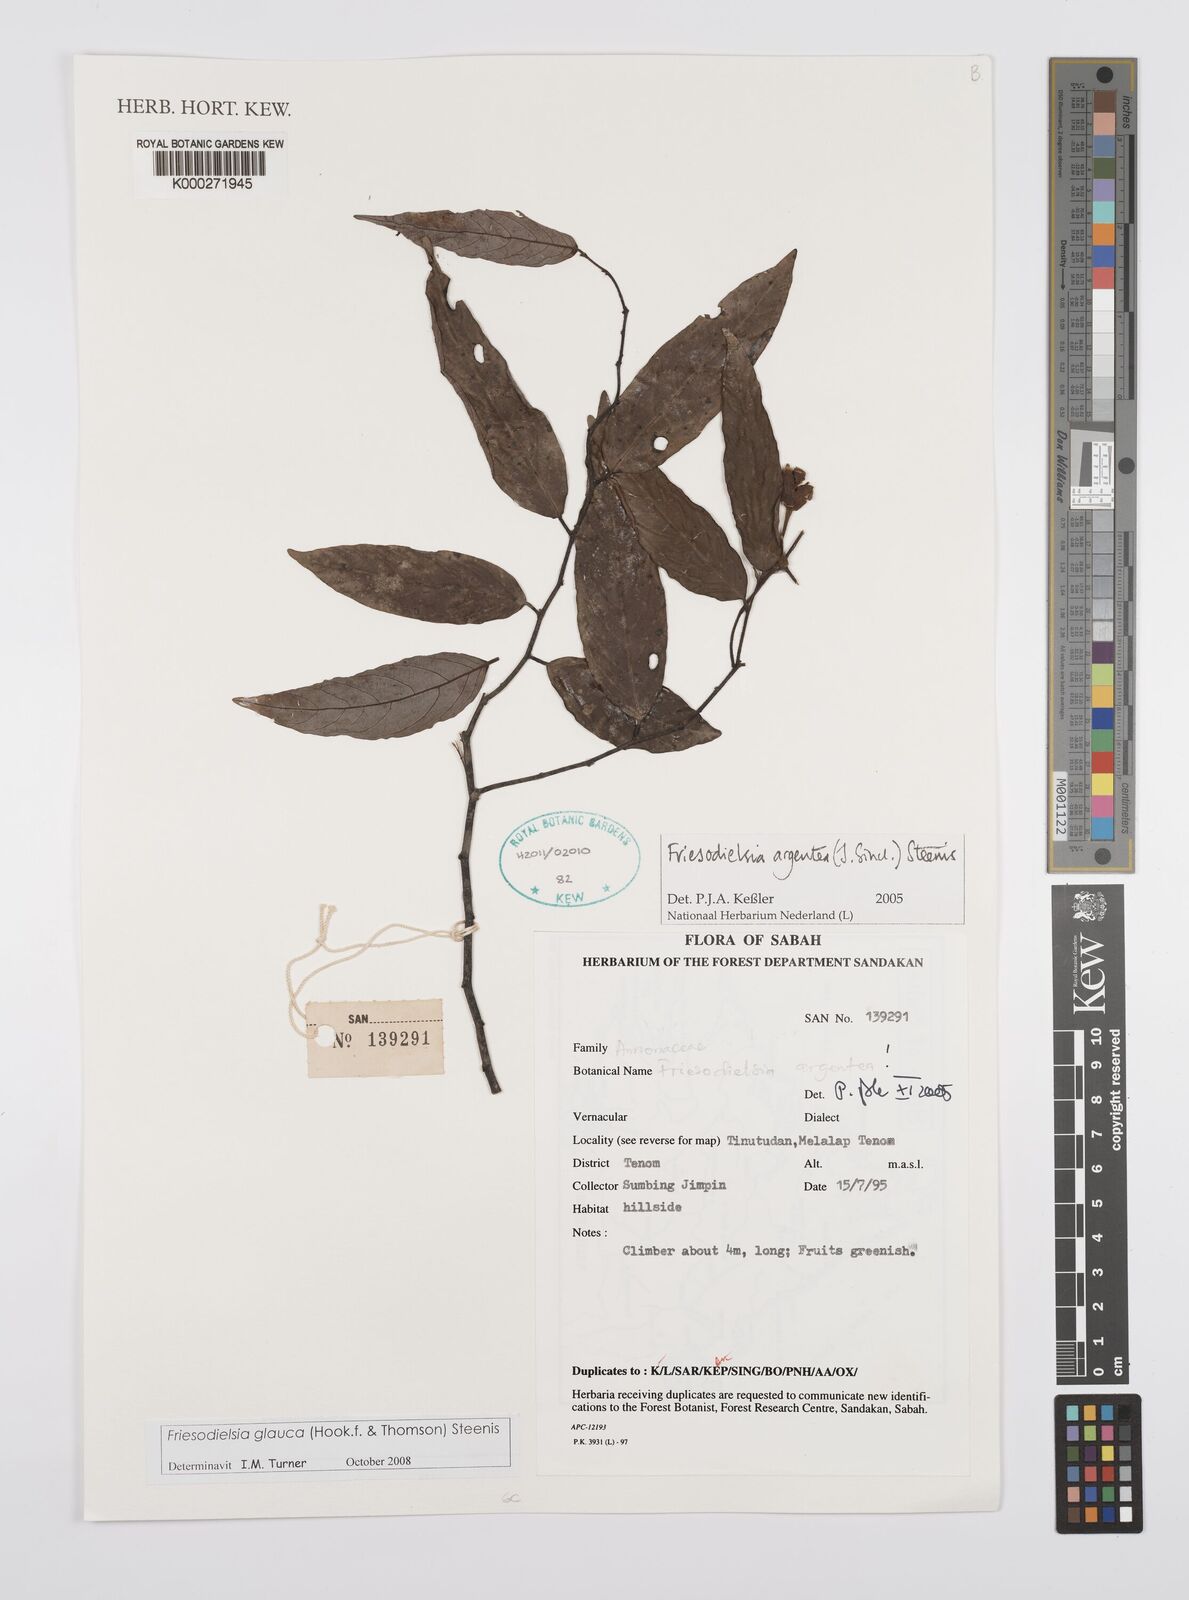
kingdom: Plantae
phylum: Tracheophyta
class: Magnoliopsida
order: Magnoliales
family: Annonaceae
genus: Friesodielsia
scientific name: Friesodielsia glauca
